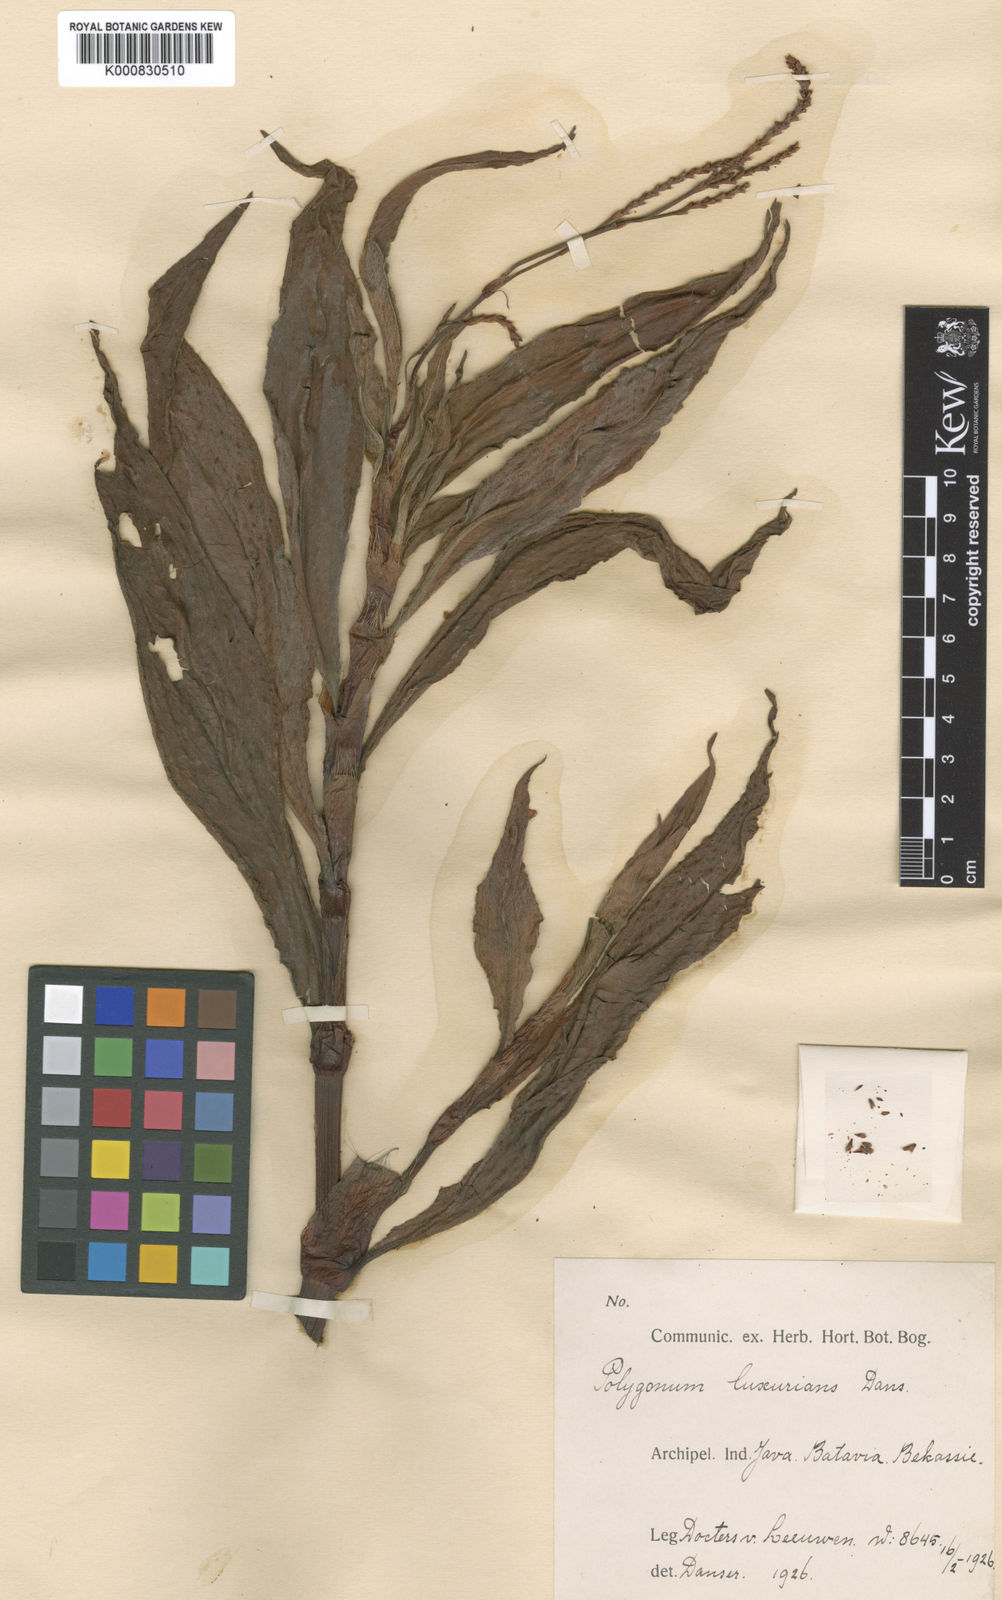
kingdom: Plantae
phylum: Tracheophyta
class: Magnoliopsida
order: Caryophyllales
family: Polygonaceae
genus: Persicaria
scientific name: Persicaria barbata
